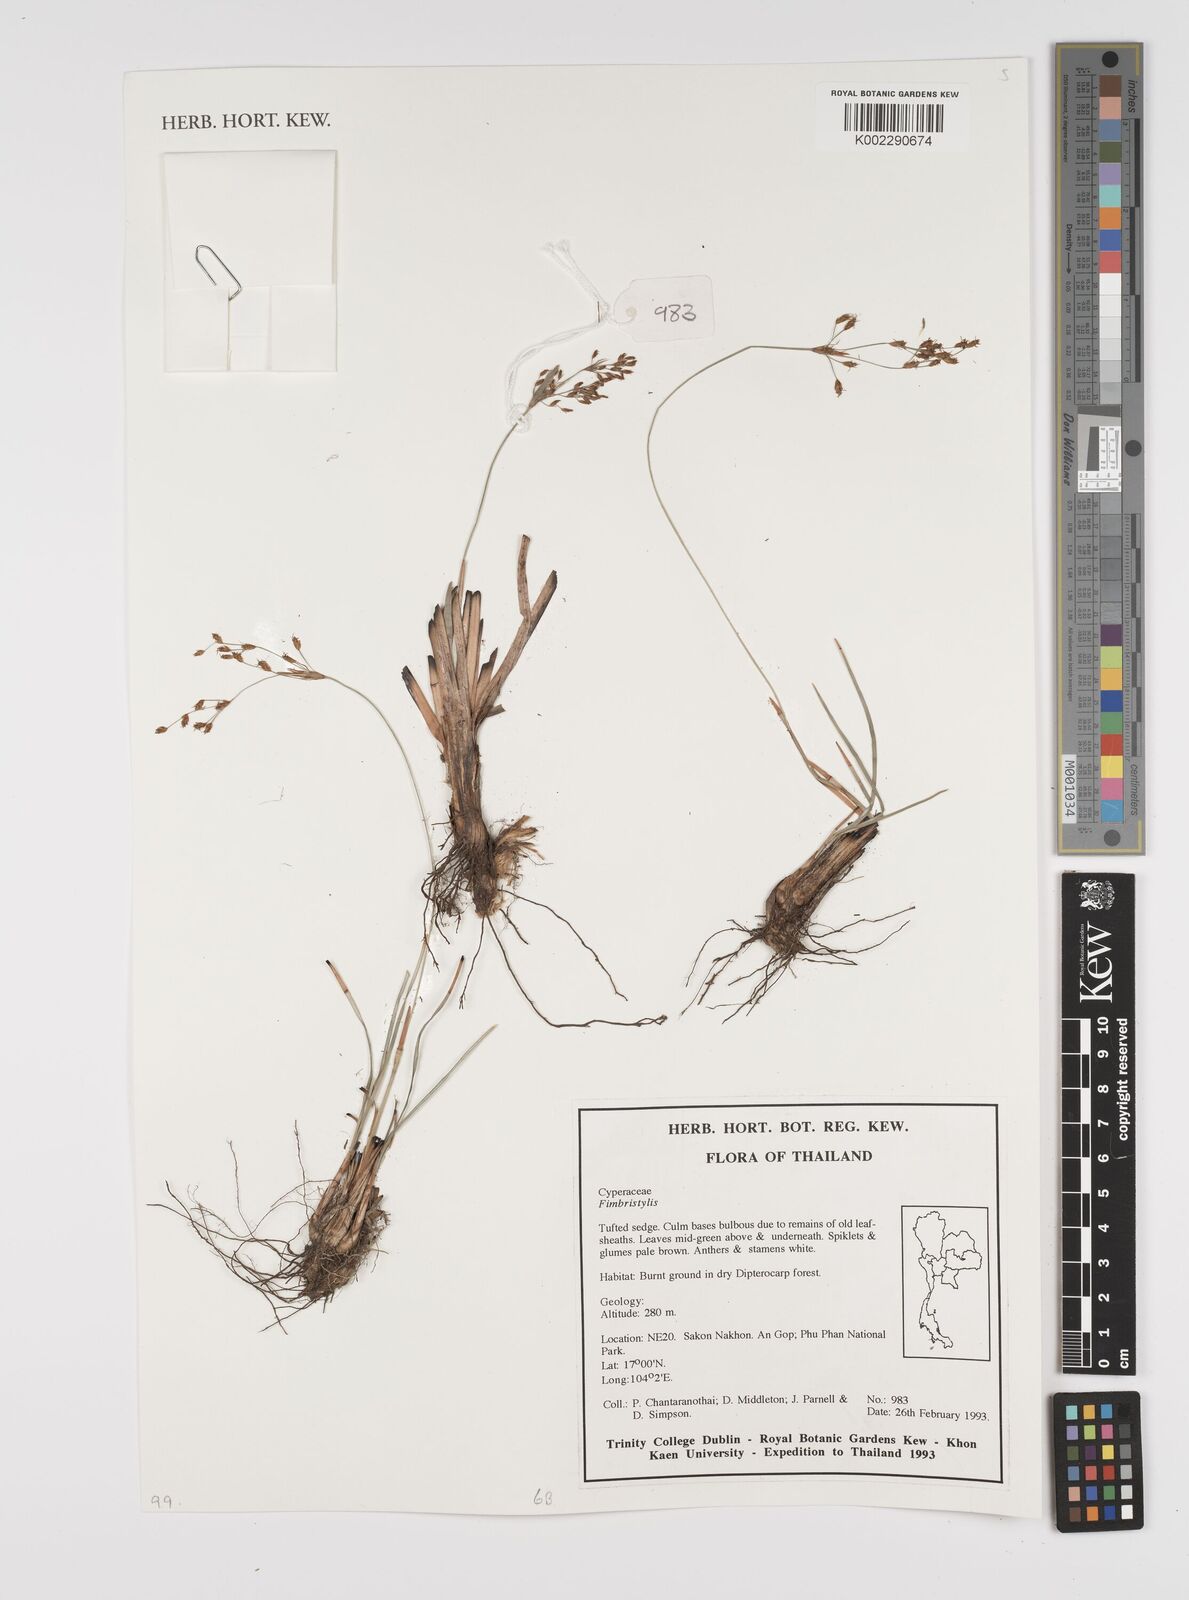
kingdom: Plantae
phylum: Tracheophyta
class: Liliopsida
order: Poales
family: Cyperaceae
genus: Fimbristylis
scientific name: Fimbristylis
